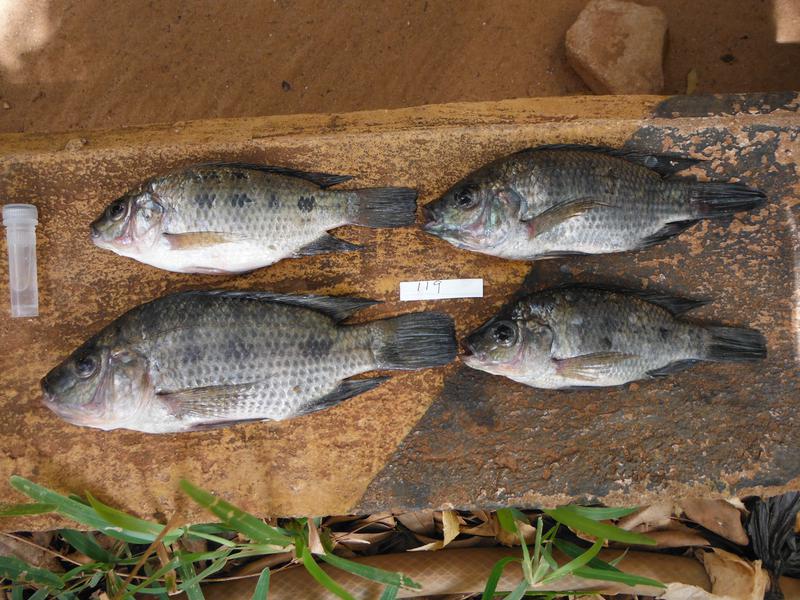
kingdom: Animalia
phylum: Chordata
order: Perciformes
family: Cichlidae
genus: Oreochromis
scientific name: Oreochromis urolepis
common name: Wami tilapia
